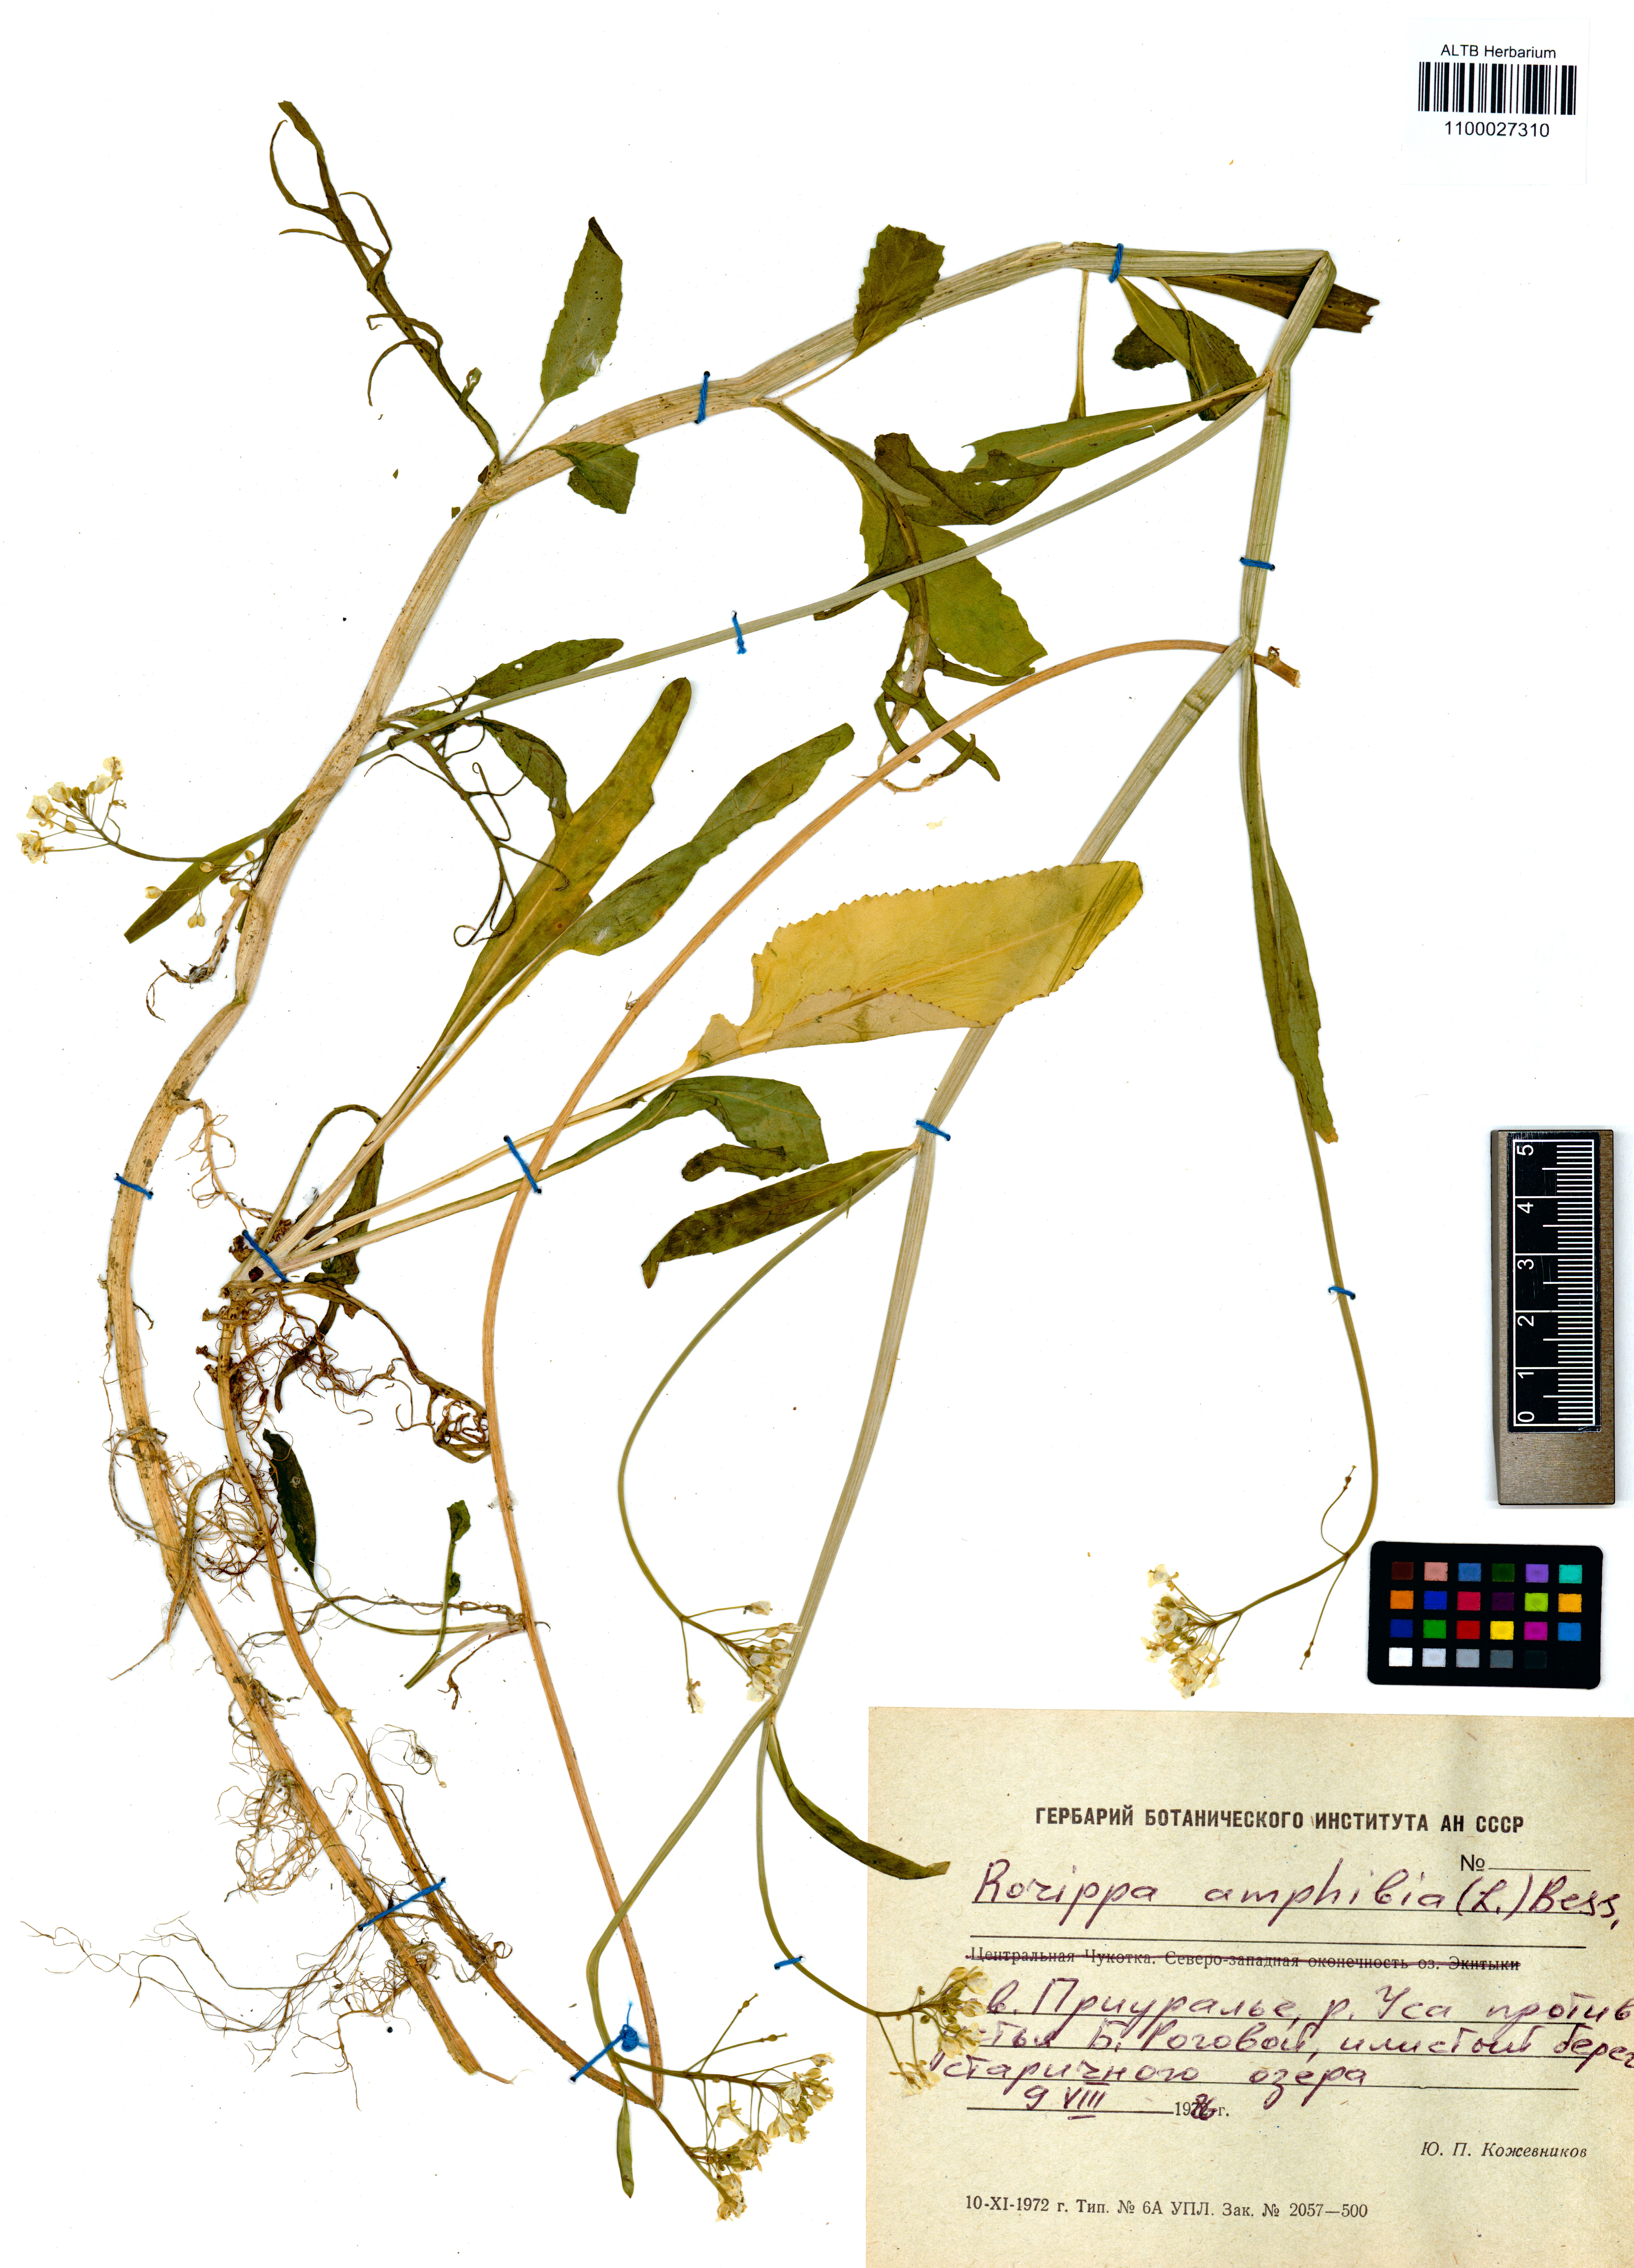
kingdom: Plantae
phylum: Tracheophyta
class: Magnoliopsida
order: Brassicales
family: Brassicaceae
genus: Rorippa
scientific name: Rorippa amphibia
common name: Great yellow-cress
